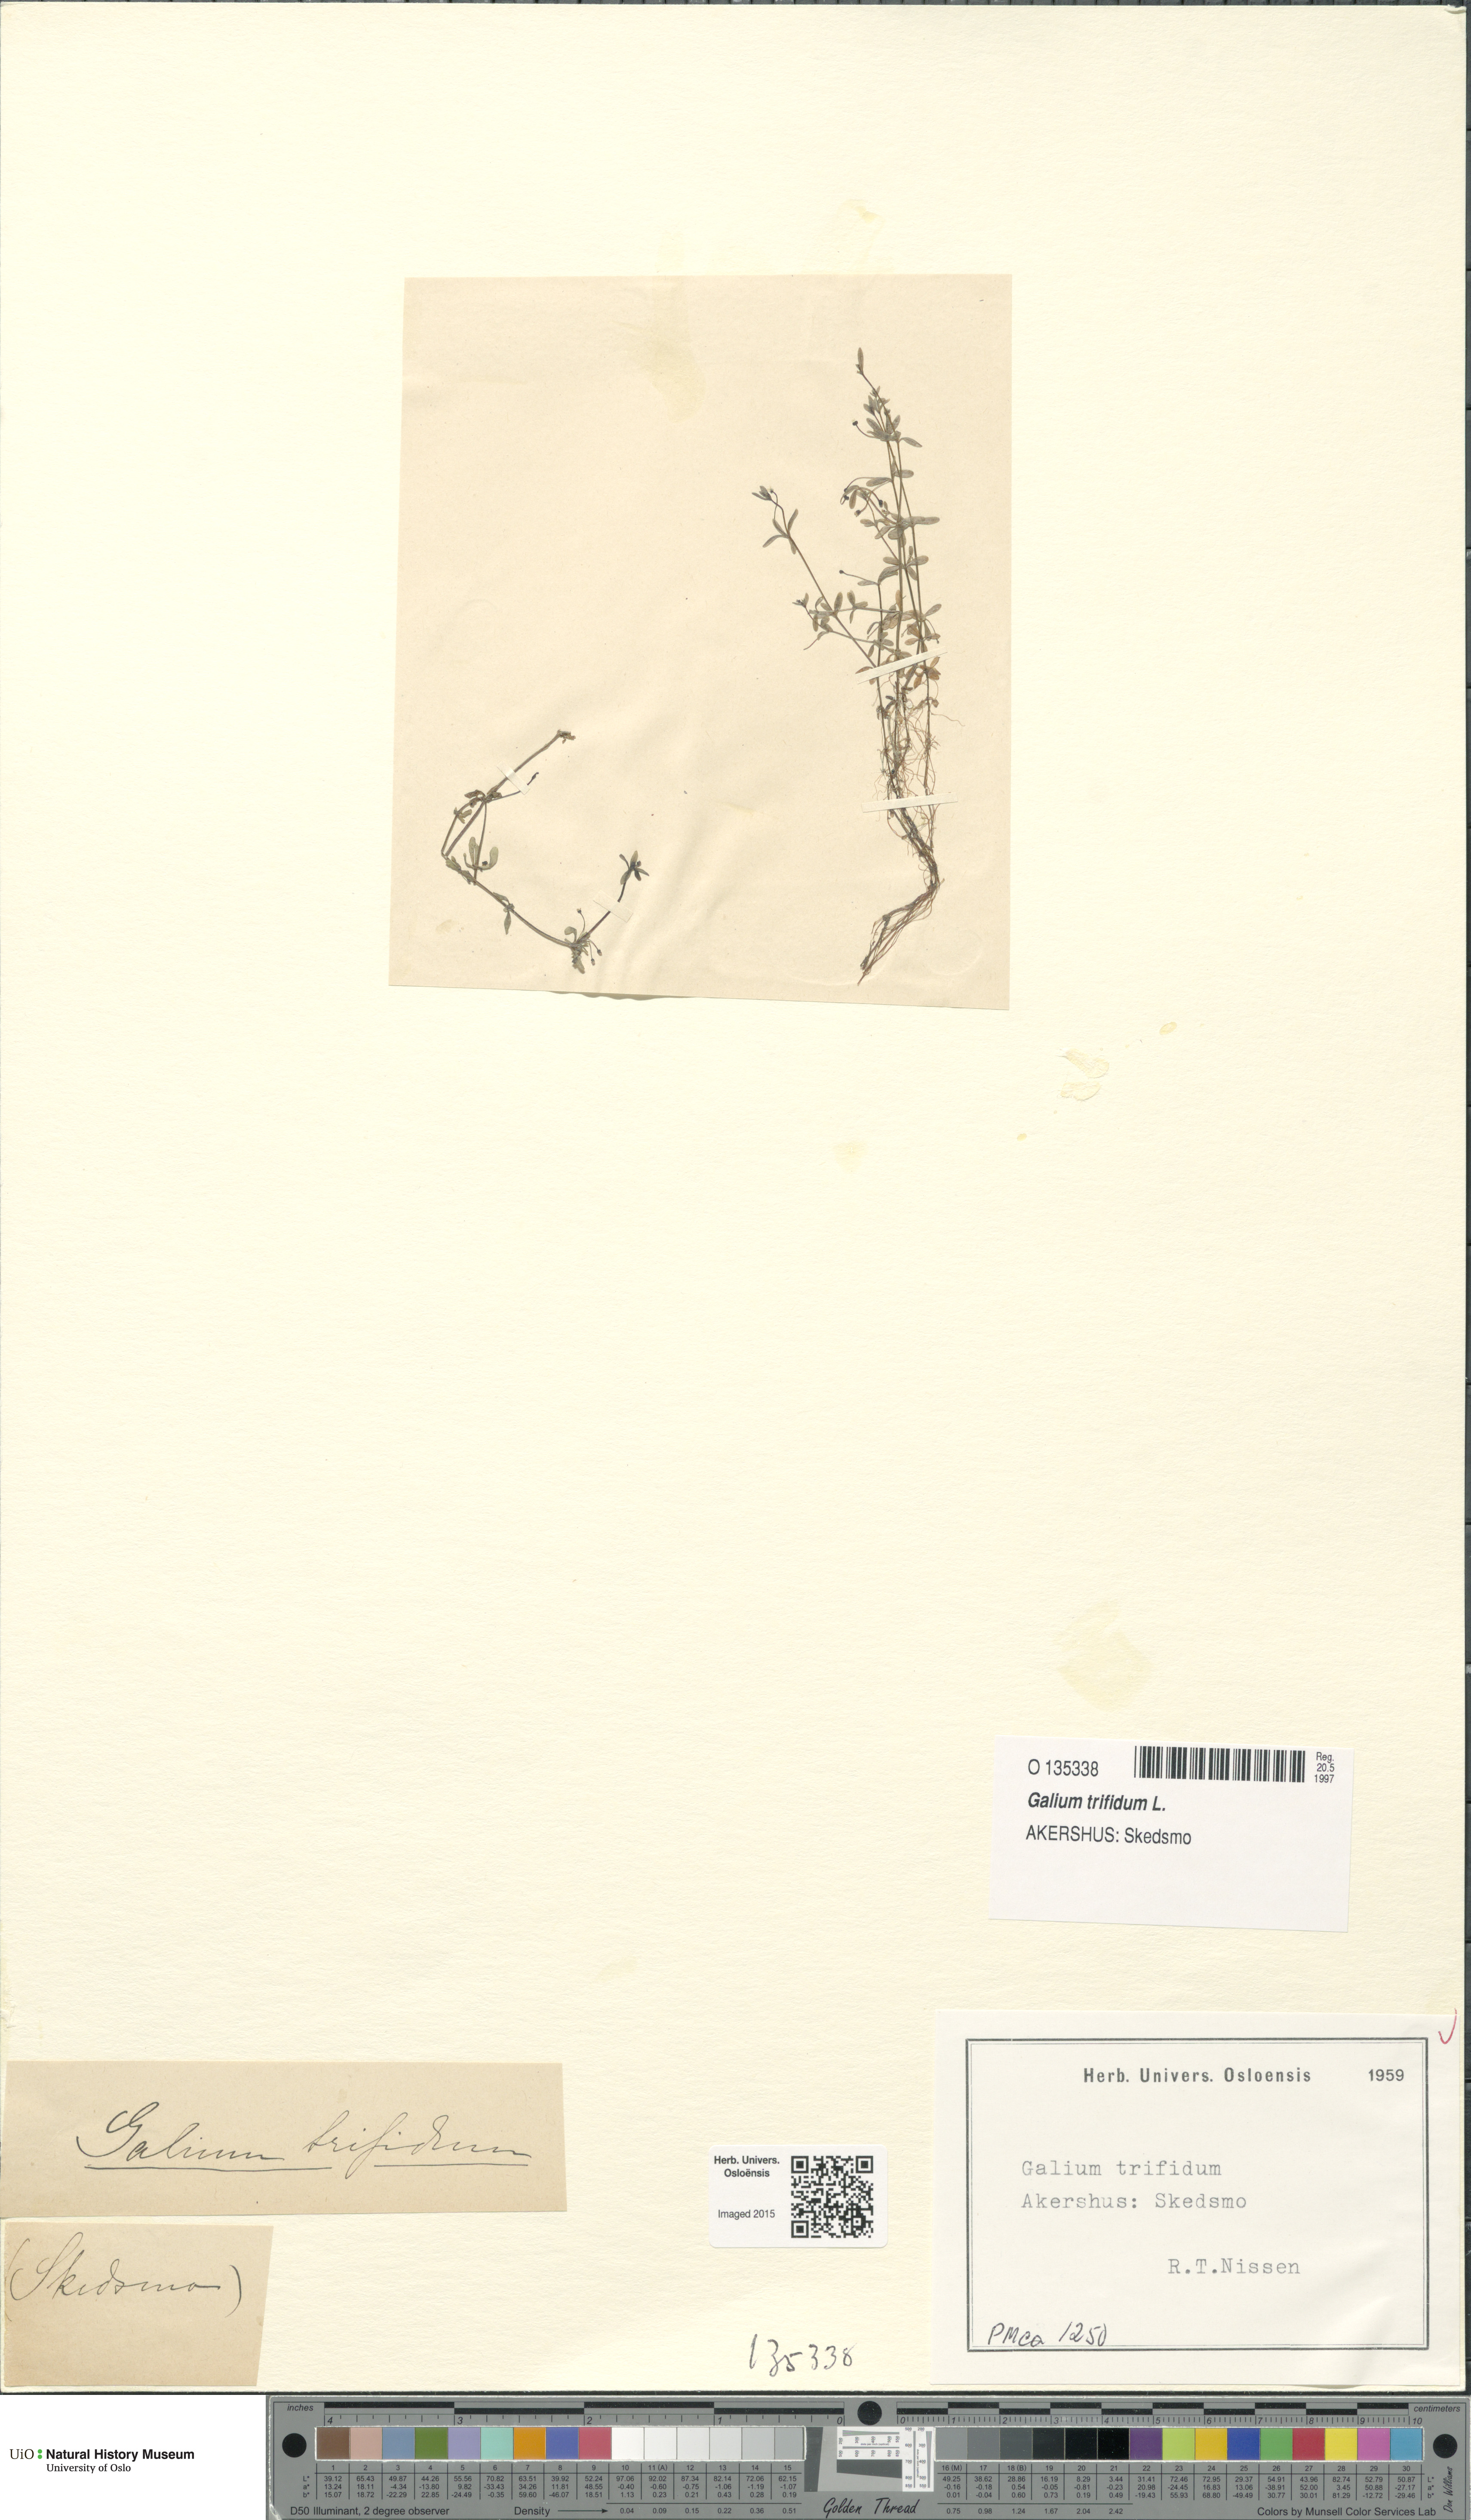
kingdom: Plantae
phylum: Tracheophyta
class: Magnoliopsida
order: Gentianales
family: Rubiaceae
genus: Galium
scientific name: Galium trifidum
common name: Small bedstraw
